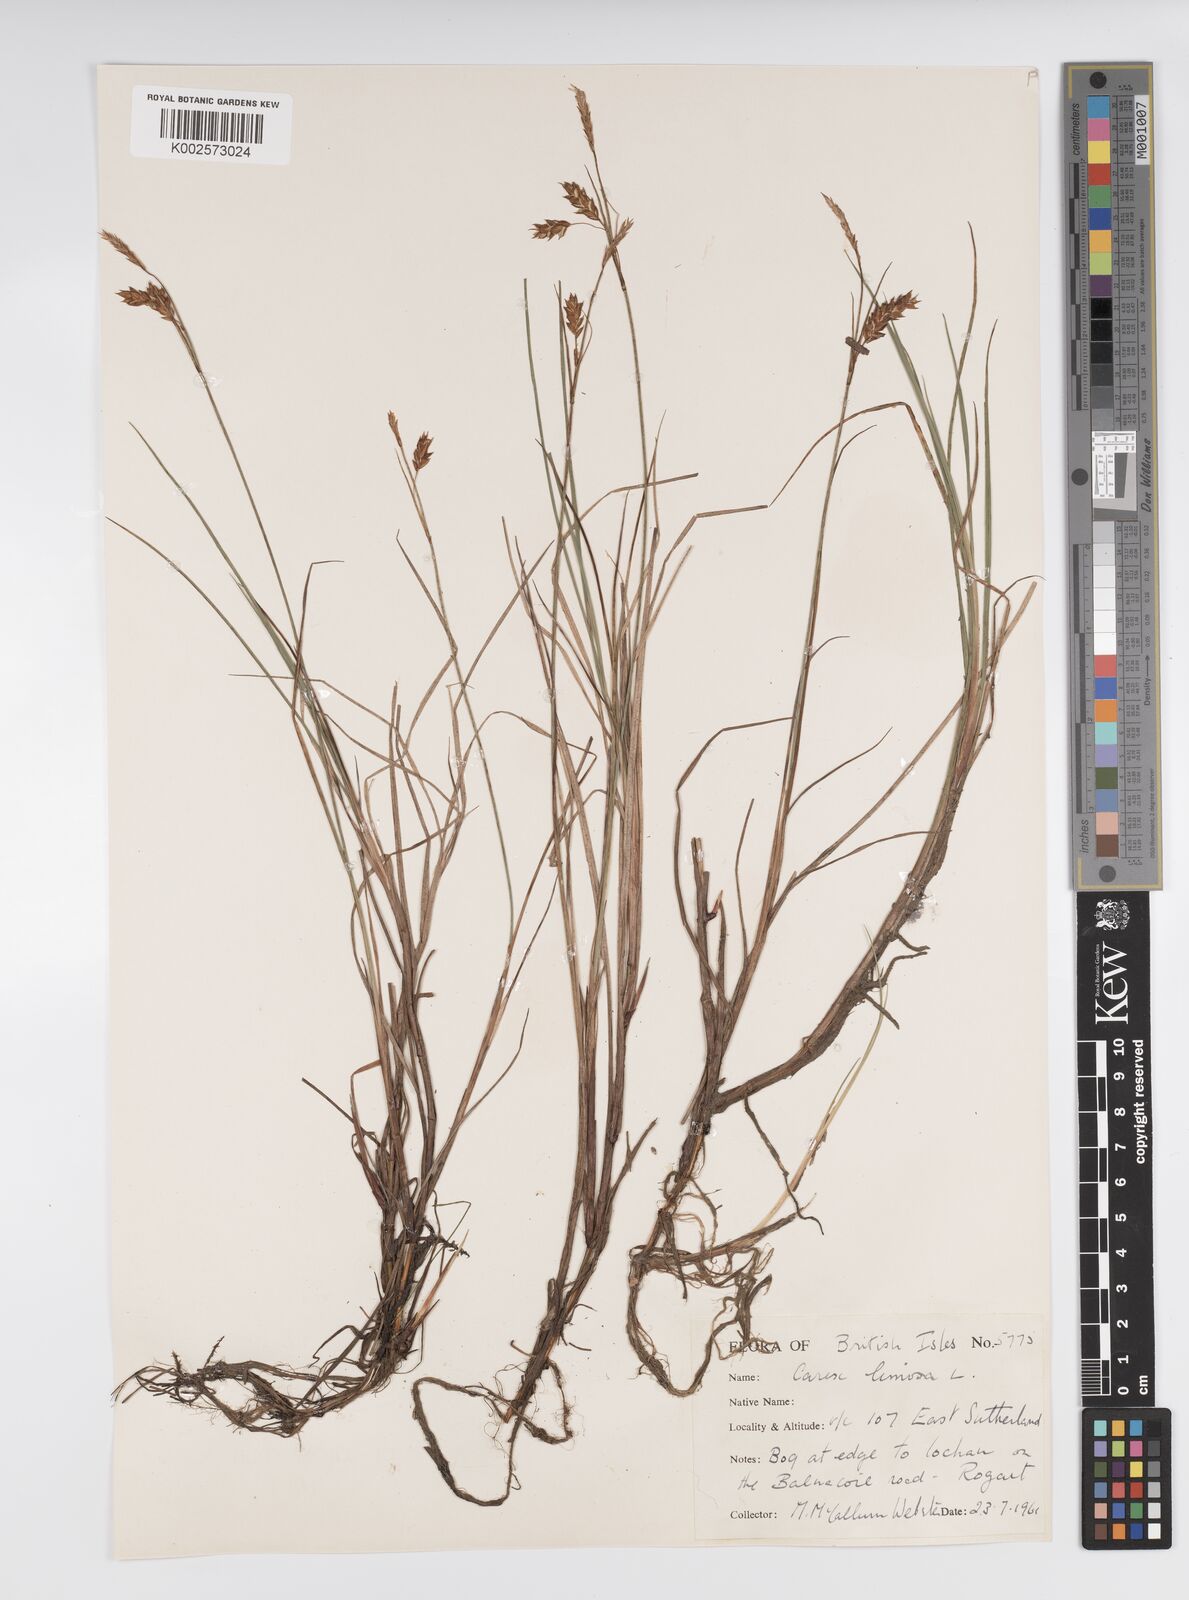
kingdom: Plantae
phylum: Tracheophyta
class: Liliopsida
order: Poales
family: Cyperaceae
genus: Carex
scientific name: Carex limosa
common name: Bog sedge
